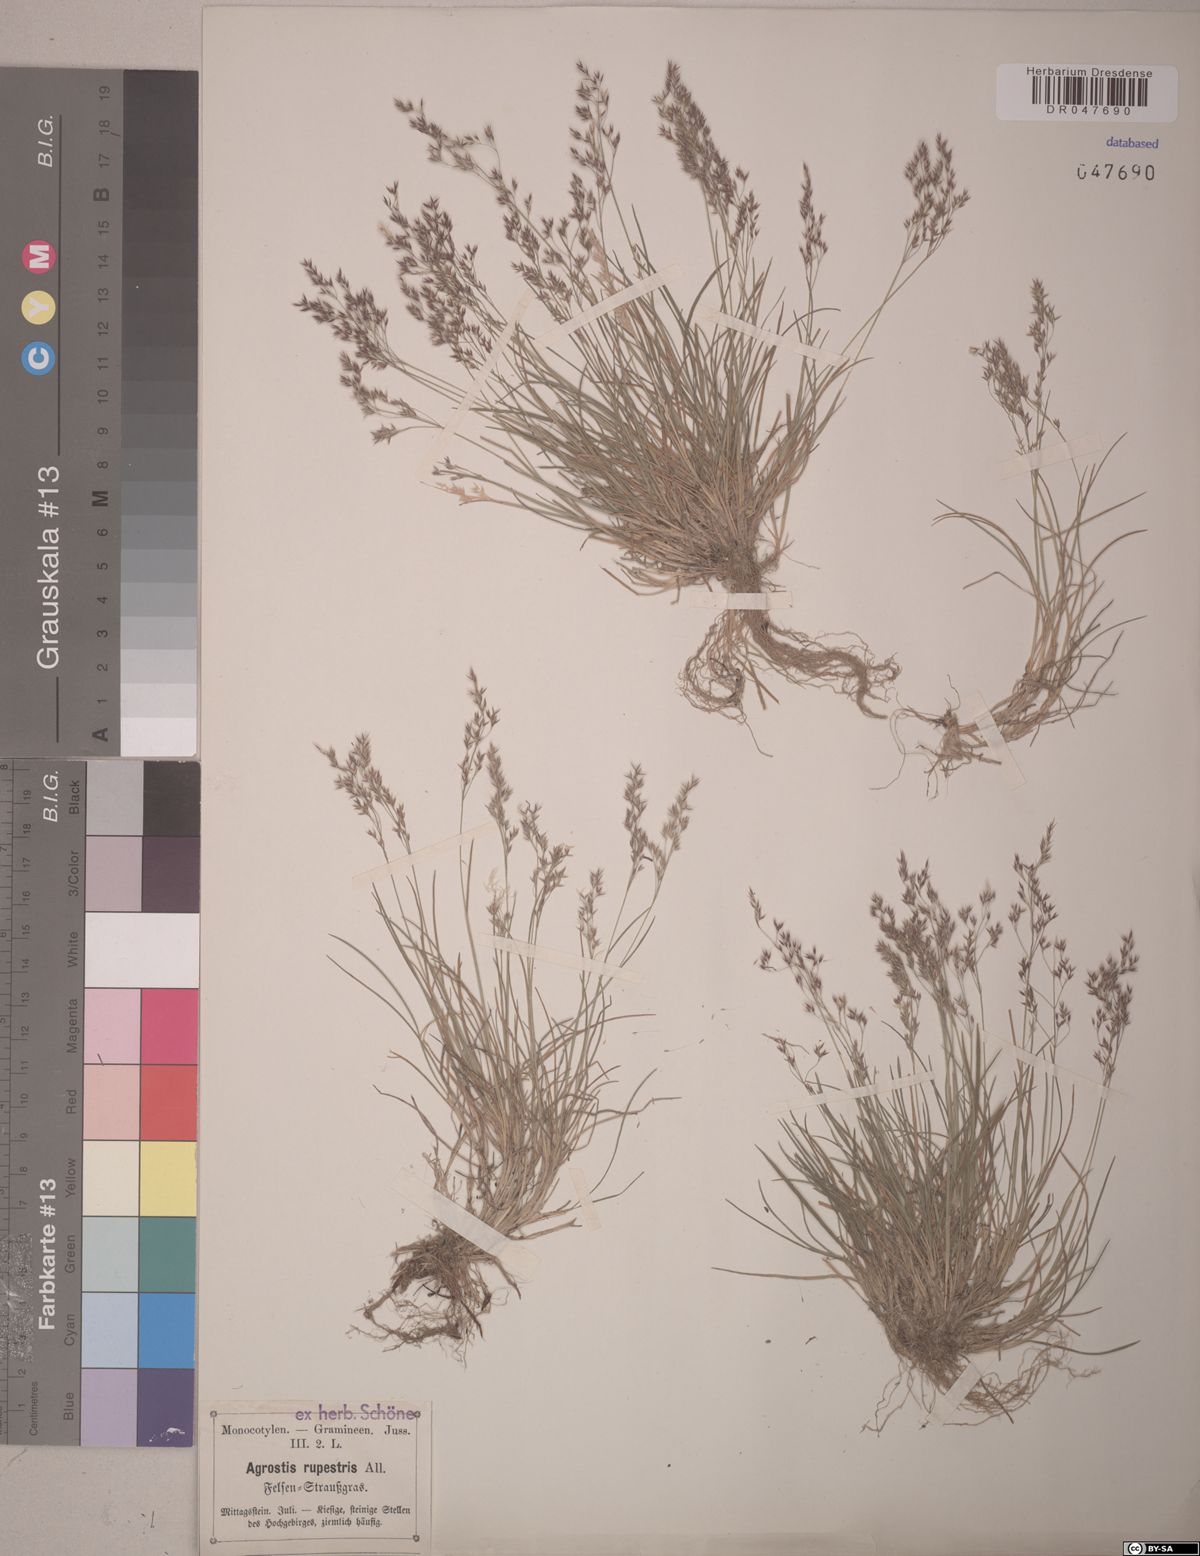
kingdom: Plantae
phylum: Tracheophyta
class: Liliopsida
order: Poales
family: Poaceae
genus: Agrostis
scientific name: Agrostis rupestris
